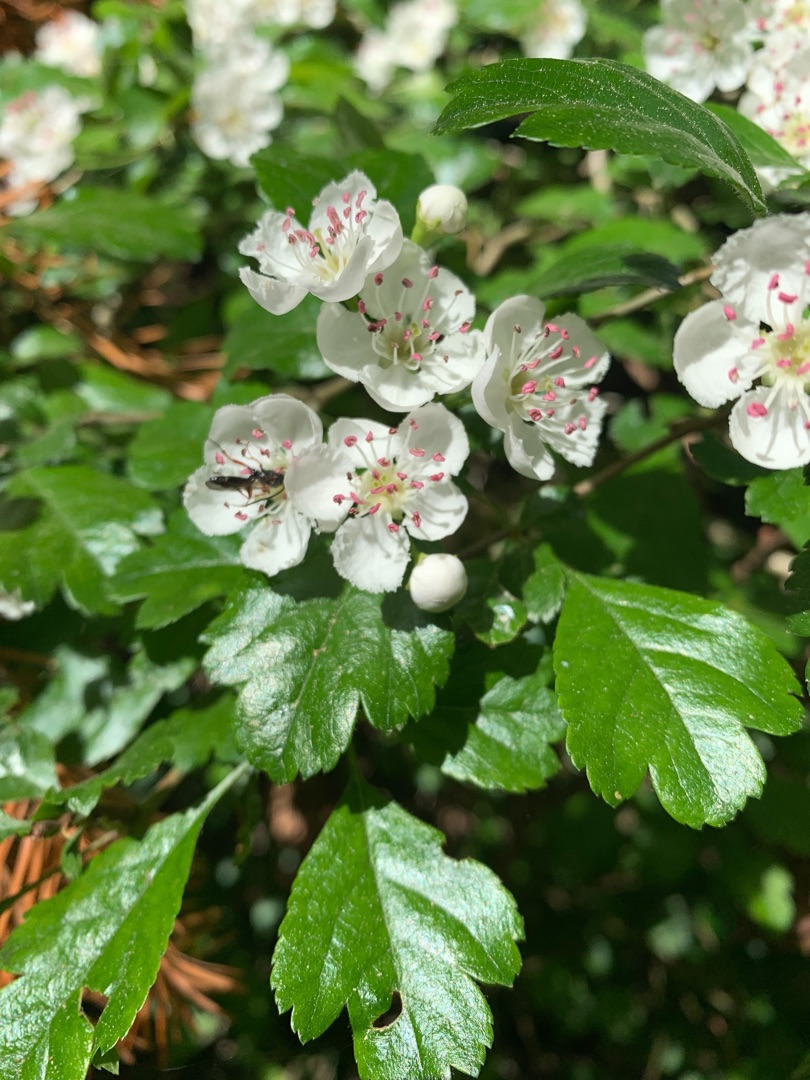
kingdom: Plantae
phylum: Tracheophyta
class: Magnoliopsida
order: Rosales
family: Rosaceae
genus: Crataegus
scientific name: Crataegus laevigata
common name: Almindelig hvidtjørn
